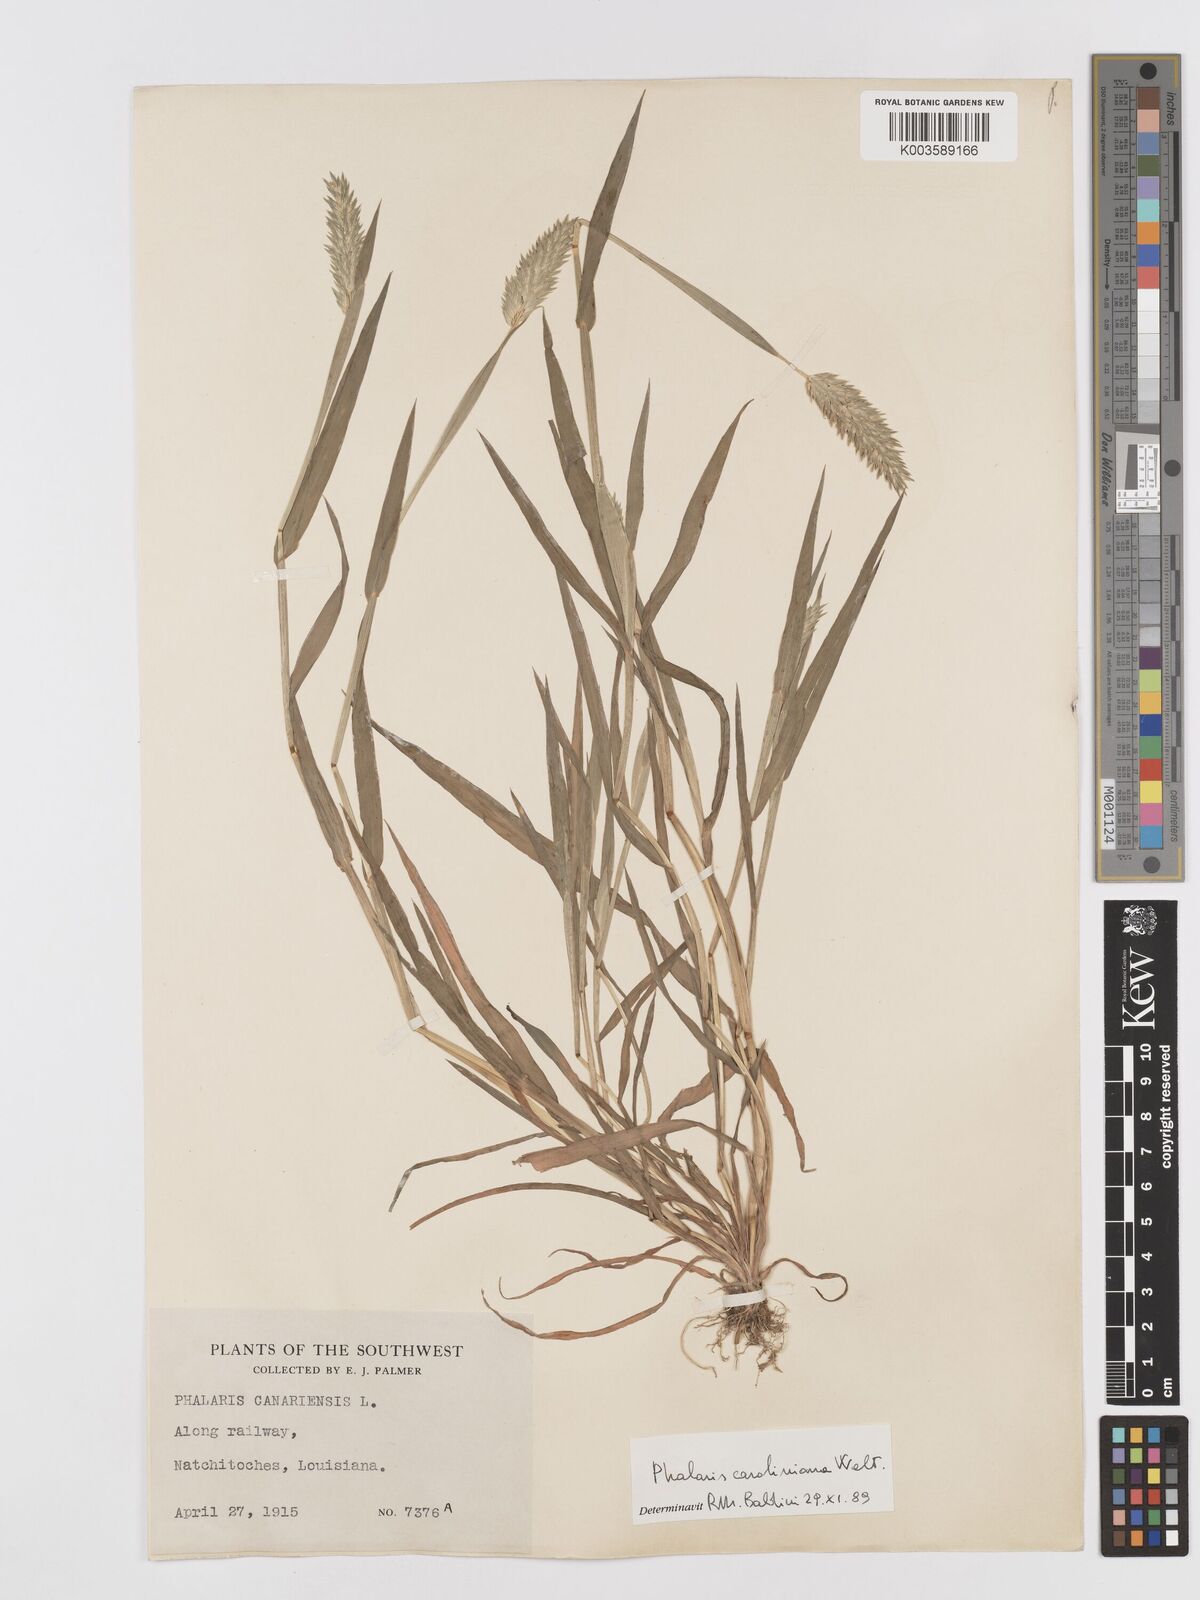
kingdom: Plantae
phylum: Tracheophyta
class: Liliopsida
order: Poales
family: Poaceae
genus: Phalaris
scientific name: Phalaris caroliniana
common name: May grass
